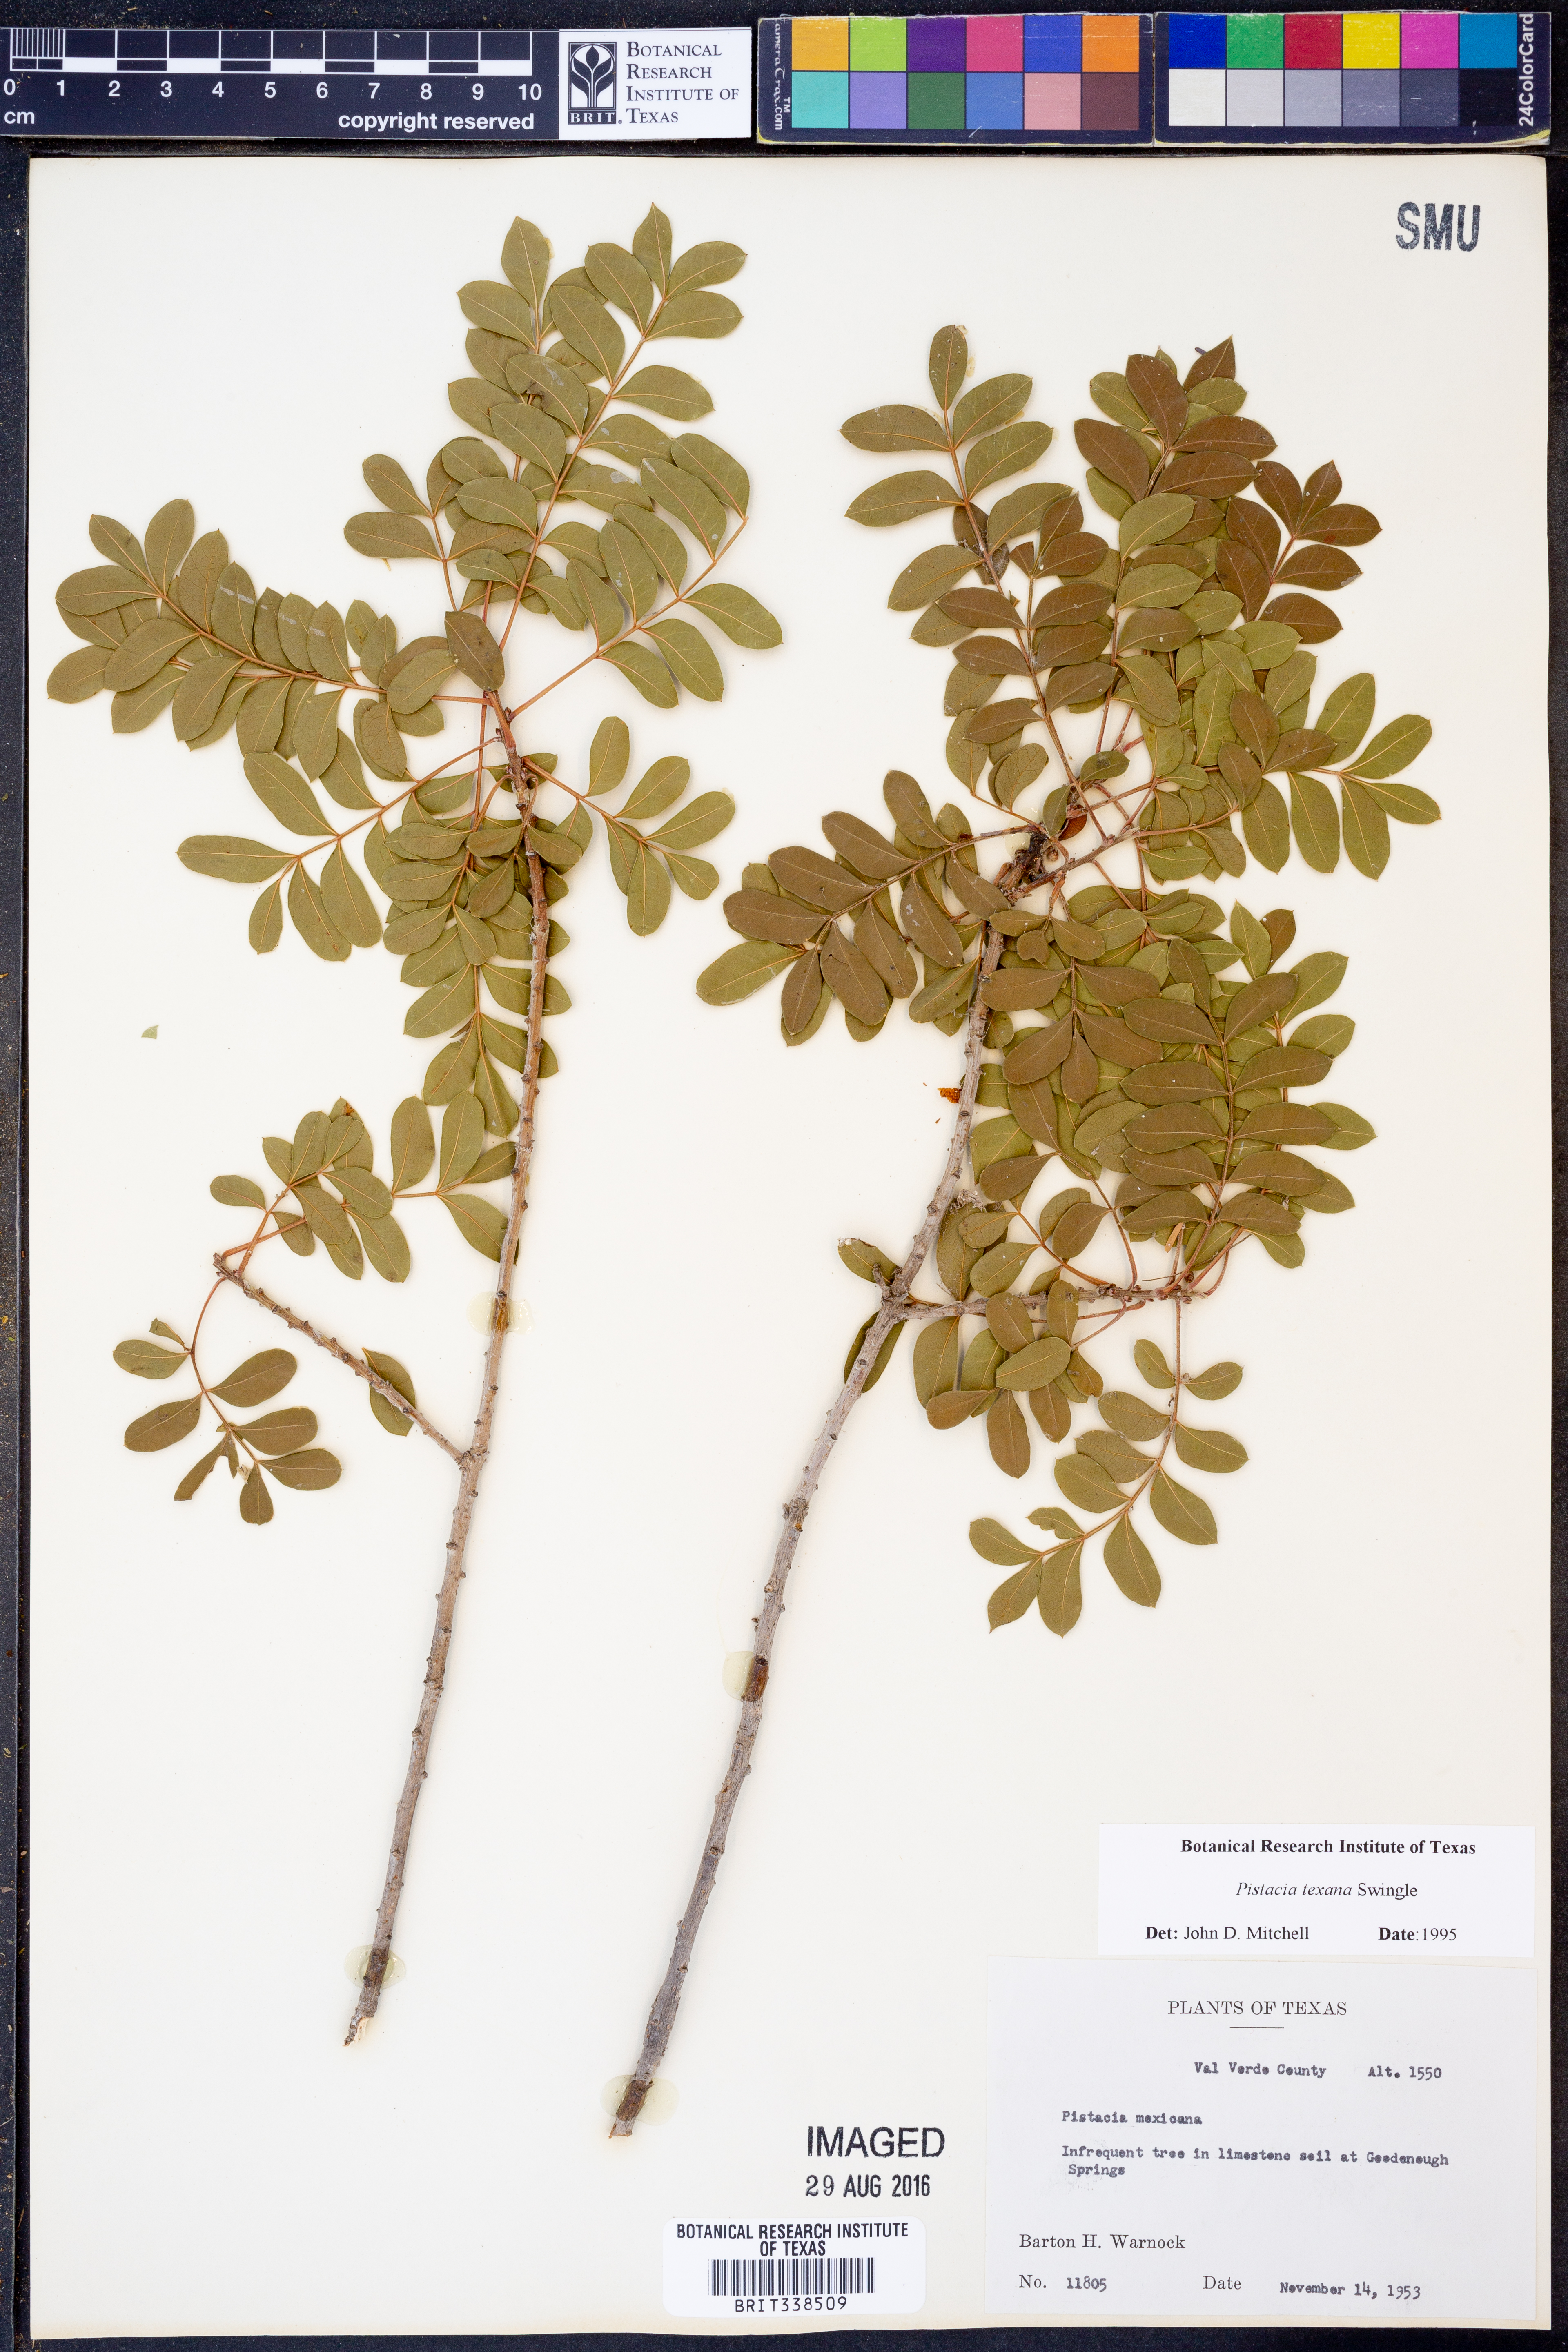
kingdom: Plantae
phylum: Tracheophyta
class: Magnoliopsida
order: Sapindales
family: Anacardiaceae
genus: Pistacia
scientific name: Pistacia mexicana
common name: Mexican pistachio
